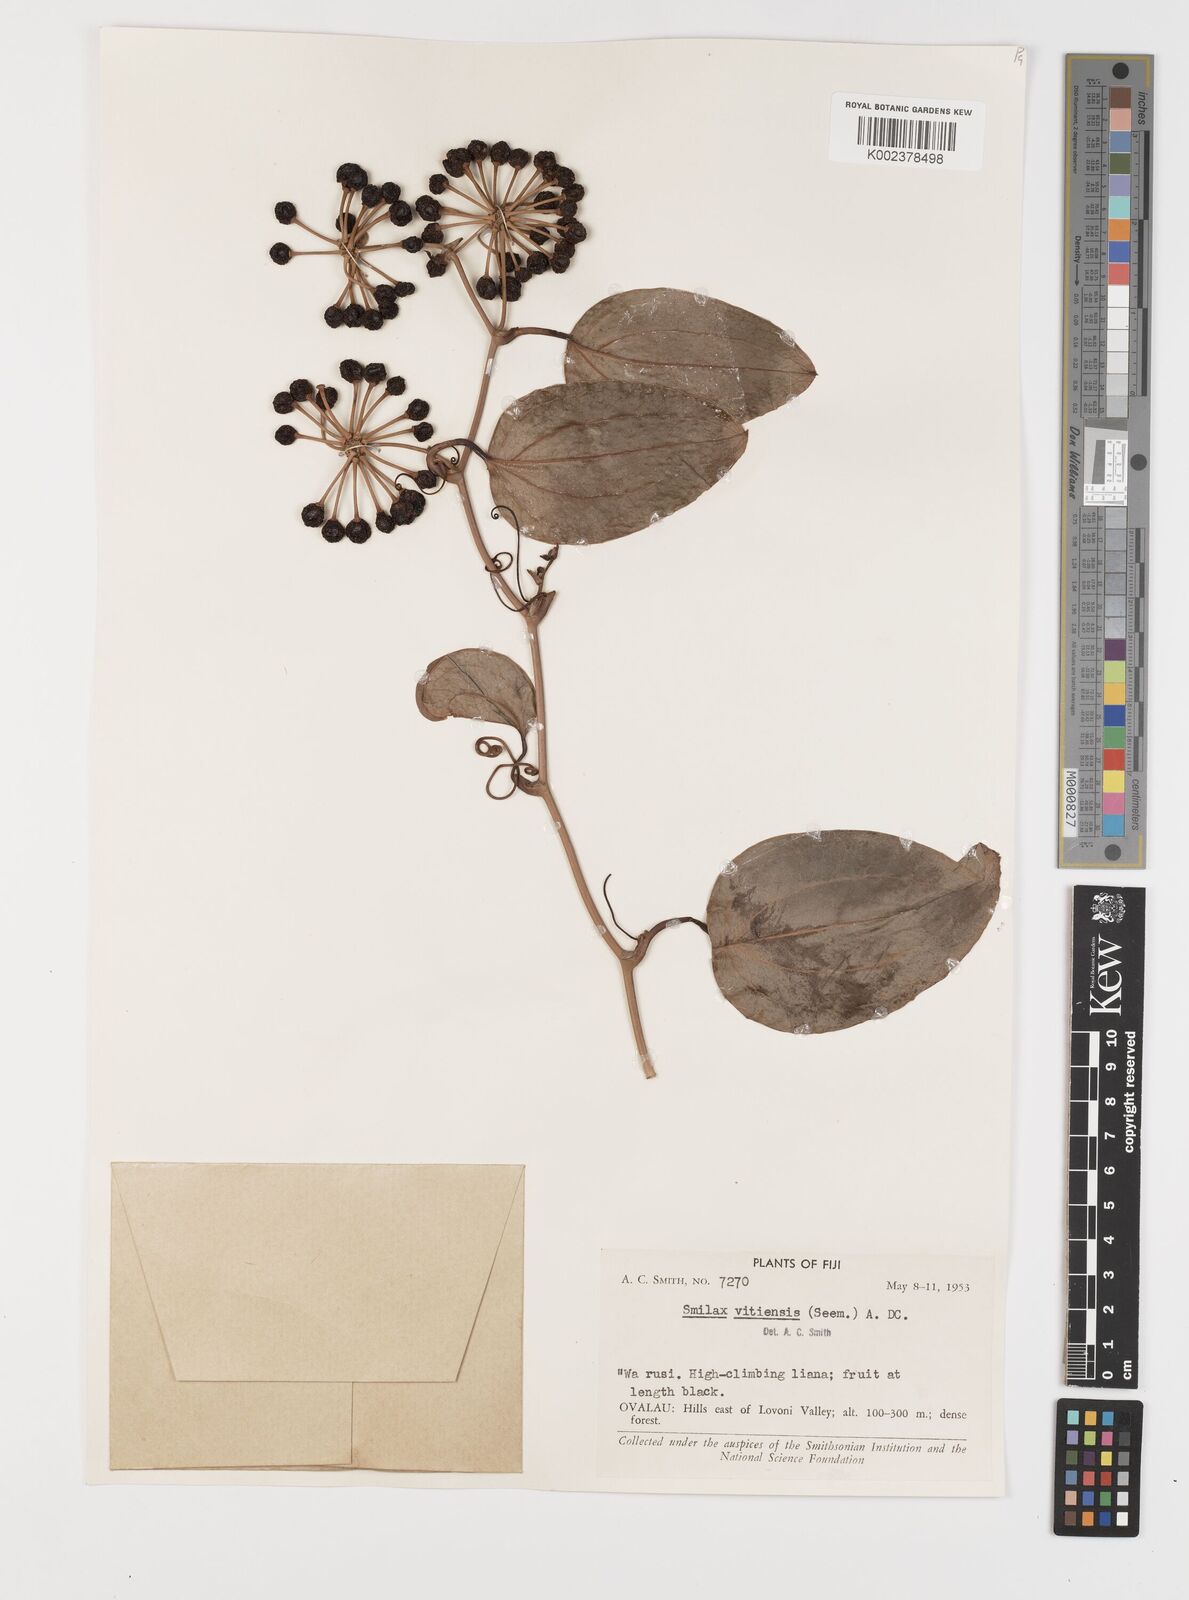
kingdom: Plantae
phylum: Tracheophyta
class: Liliopsida
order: Liliales
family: Smilacaceae
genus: Smilax
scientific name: Smilax vitiensis
